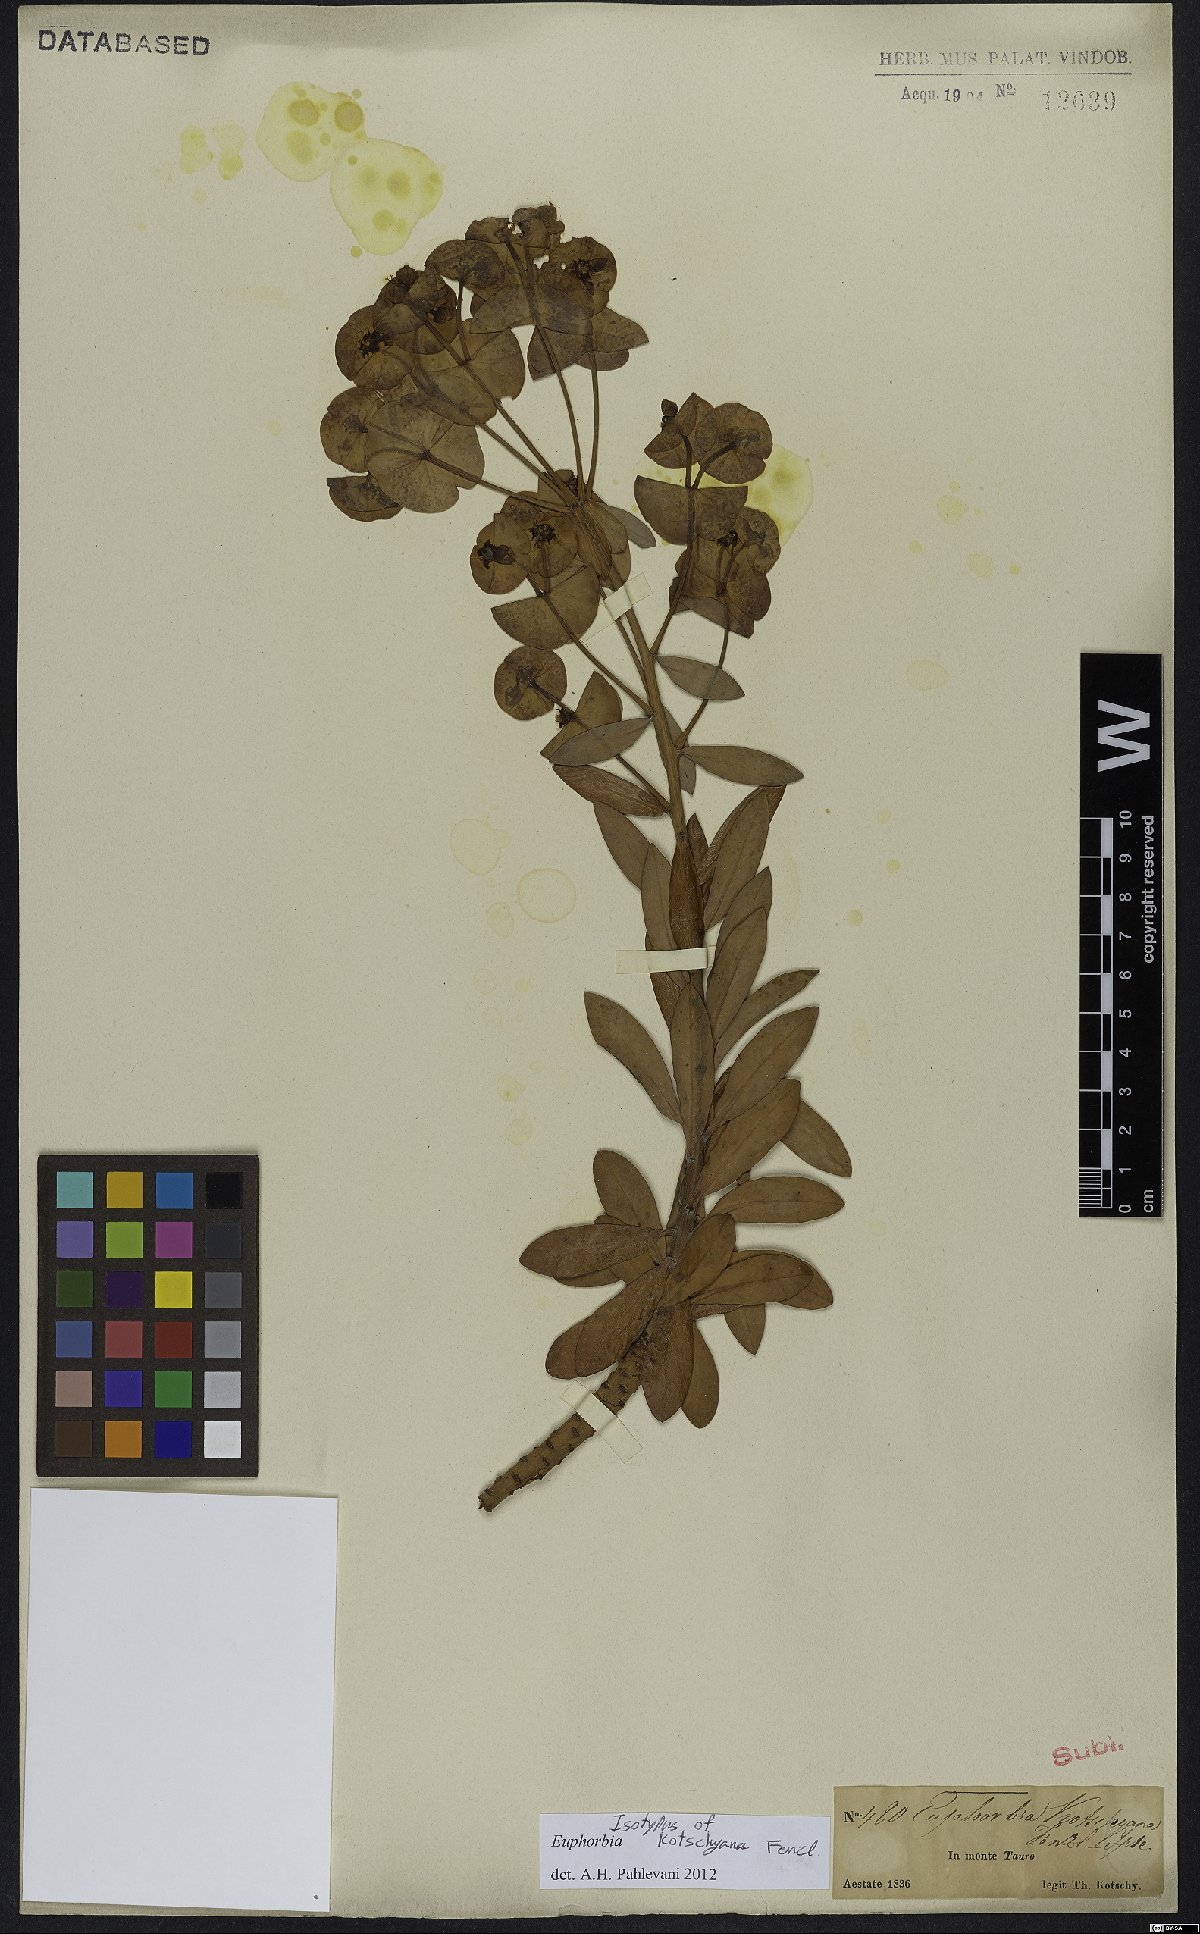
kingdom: Plantae
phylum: Tracheophyta
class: Magnoliopsida
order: Malpighiales
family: Euphorbiaceae
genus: Euphorbia
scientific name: Euphorbia kotschyana
